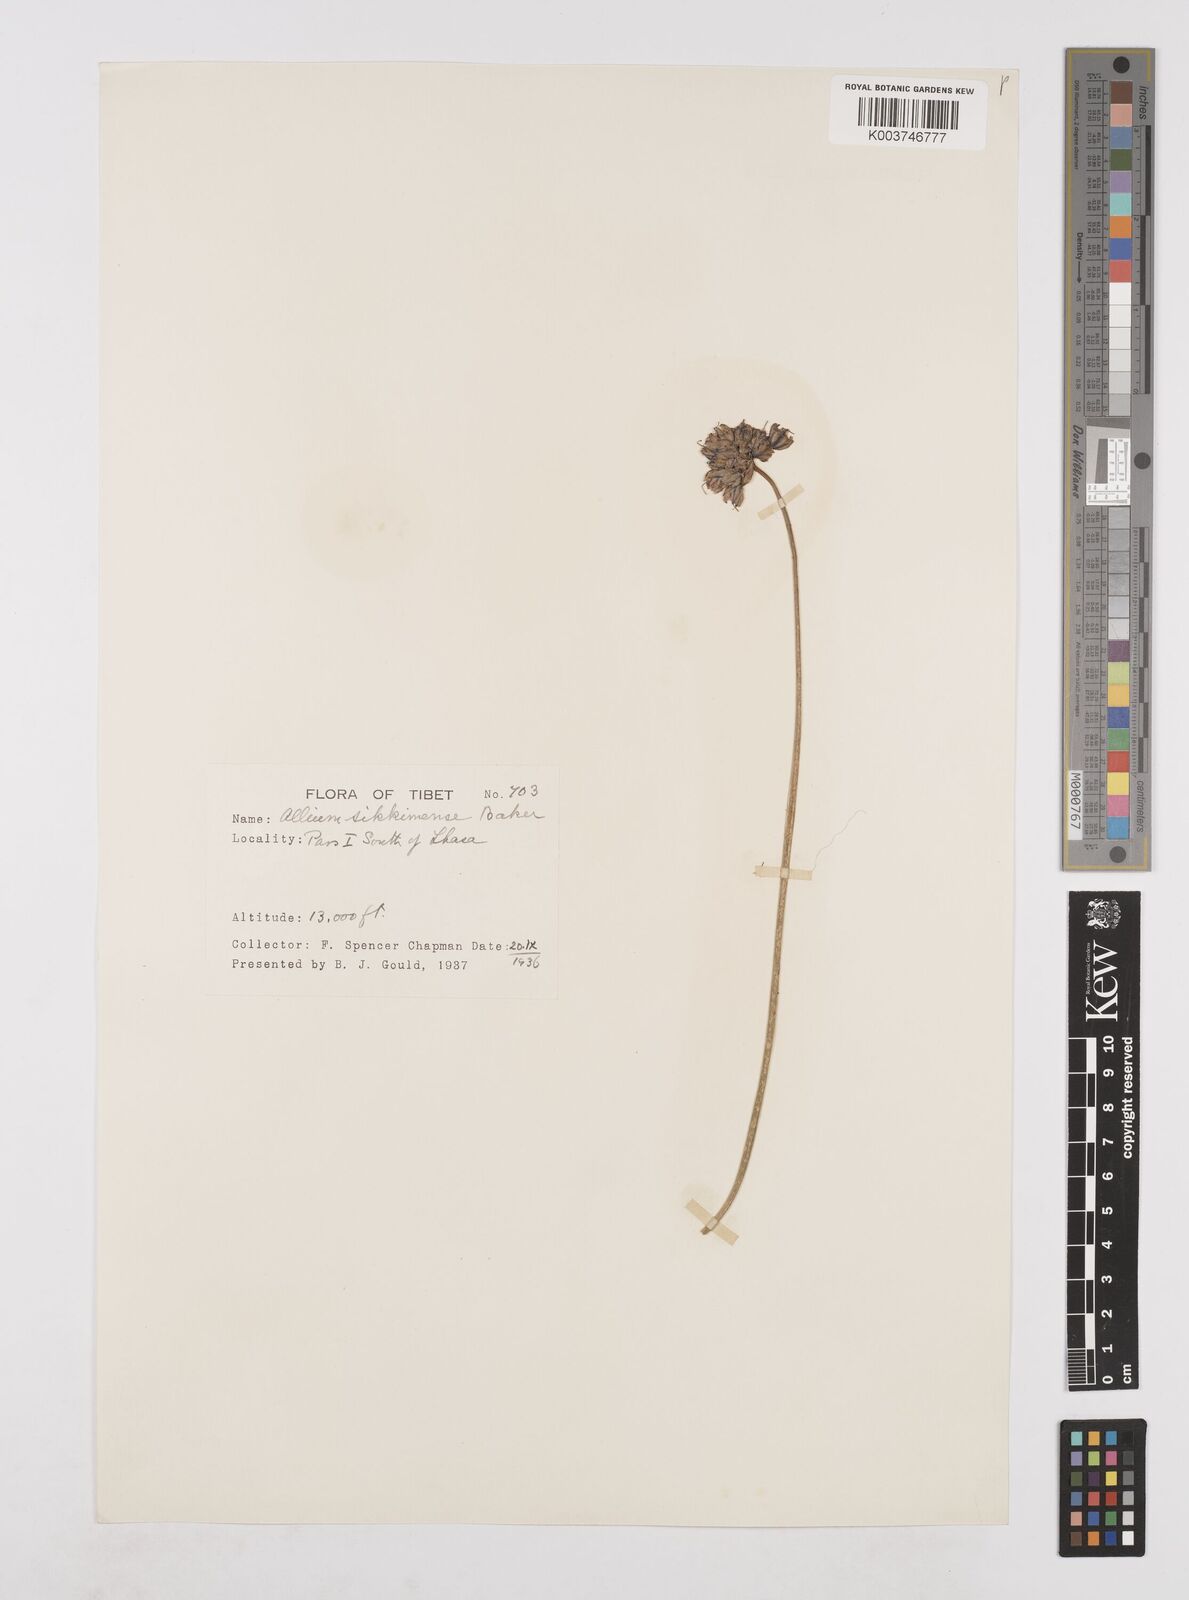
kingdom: Plantae
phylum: Tracheophyta
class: Liliopsida
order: Asparagales
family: Amaryllidaceae
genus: Allium
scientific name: Allium sikkimense
